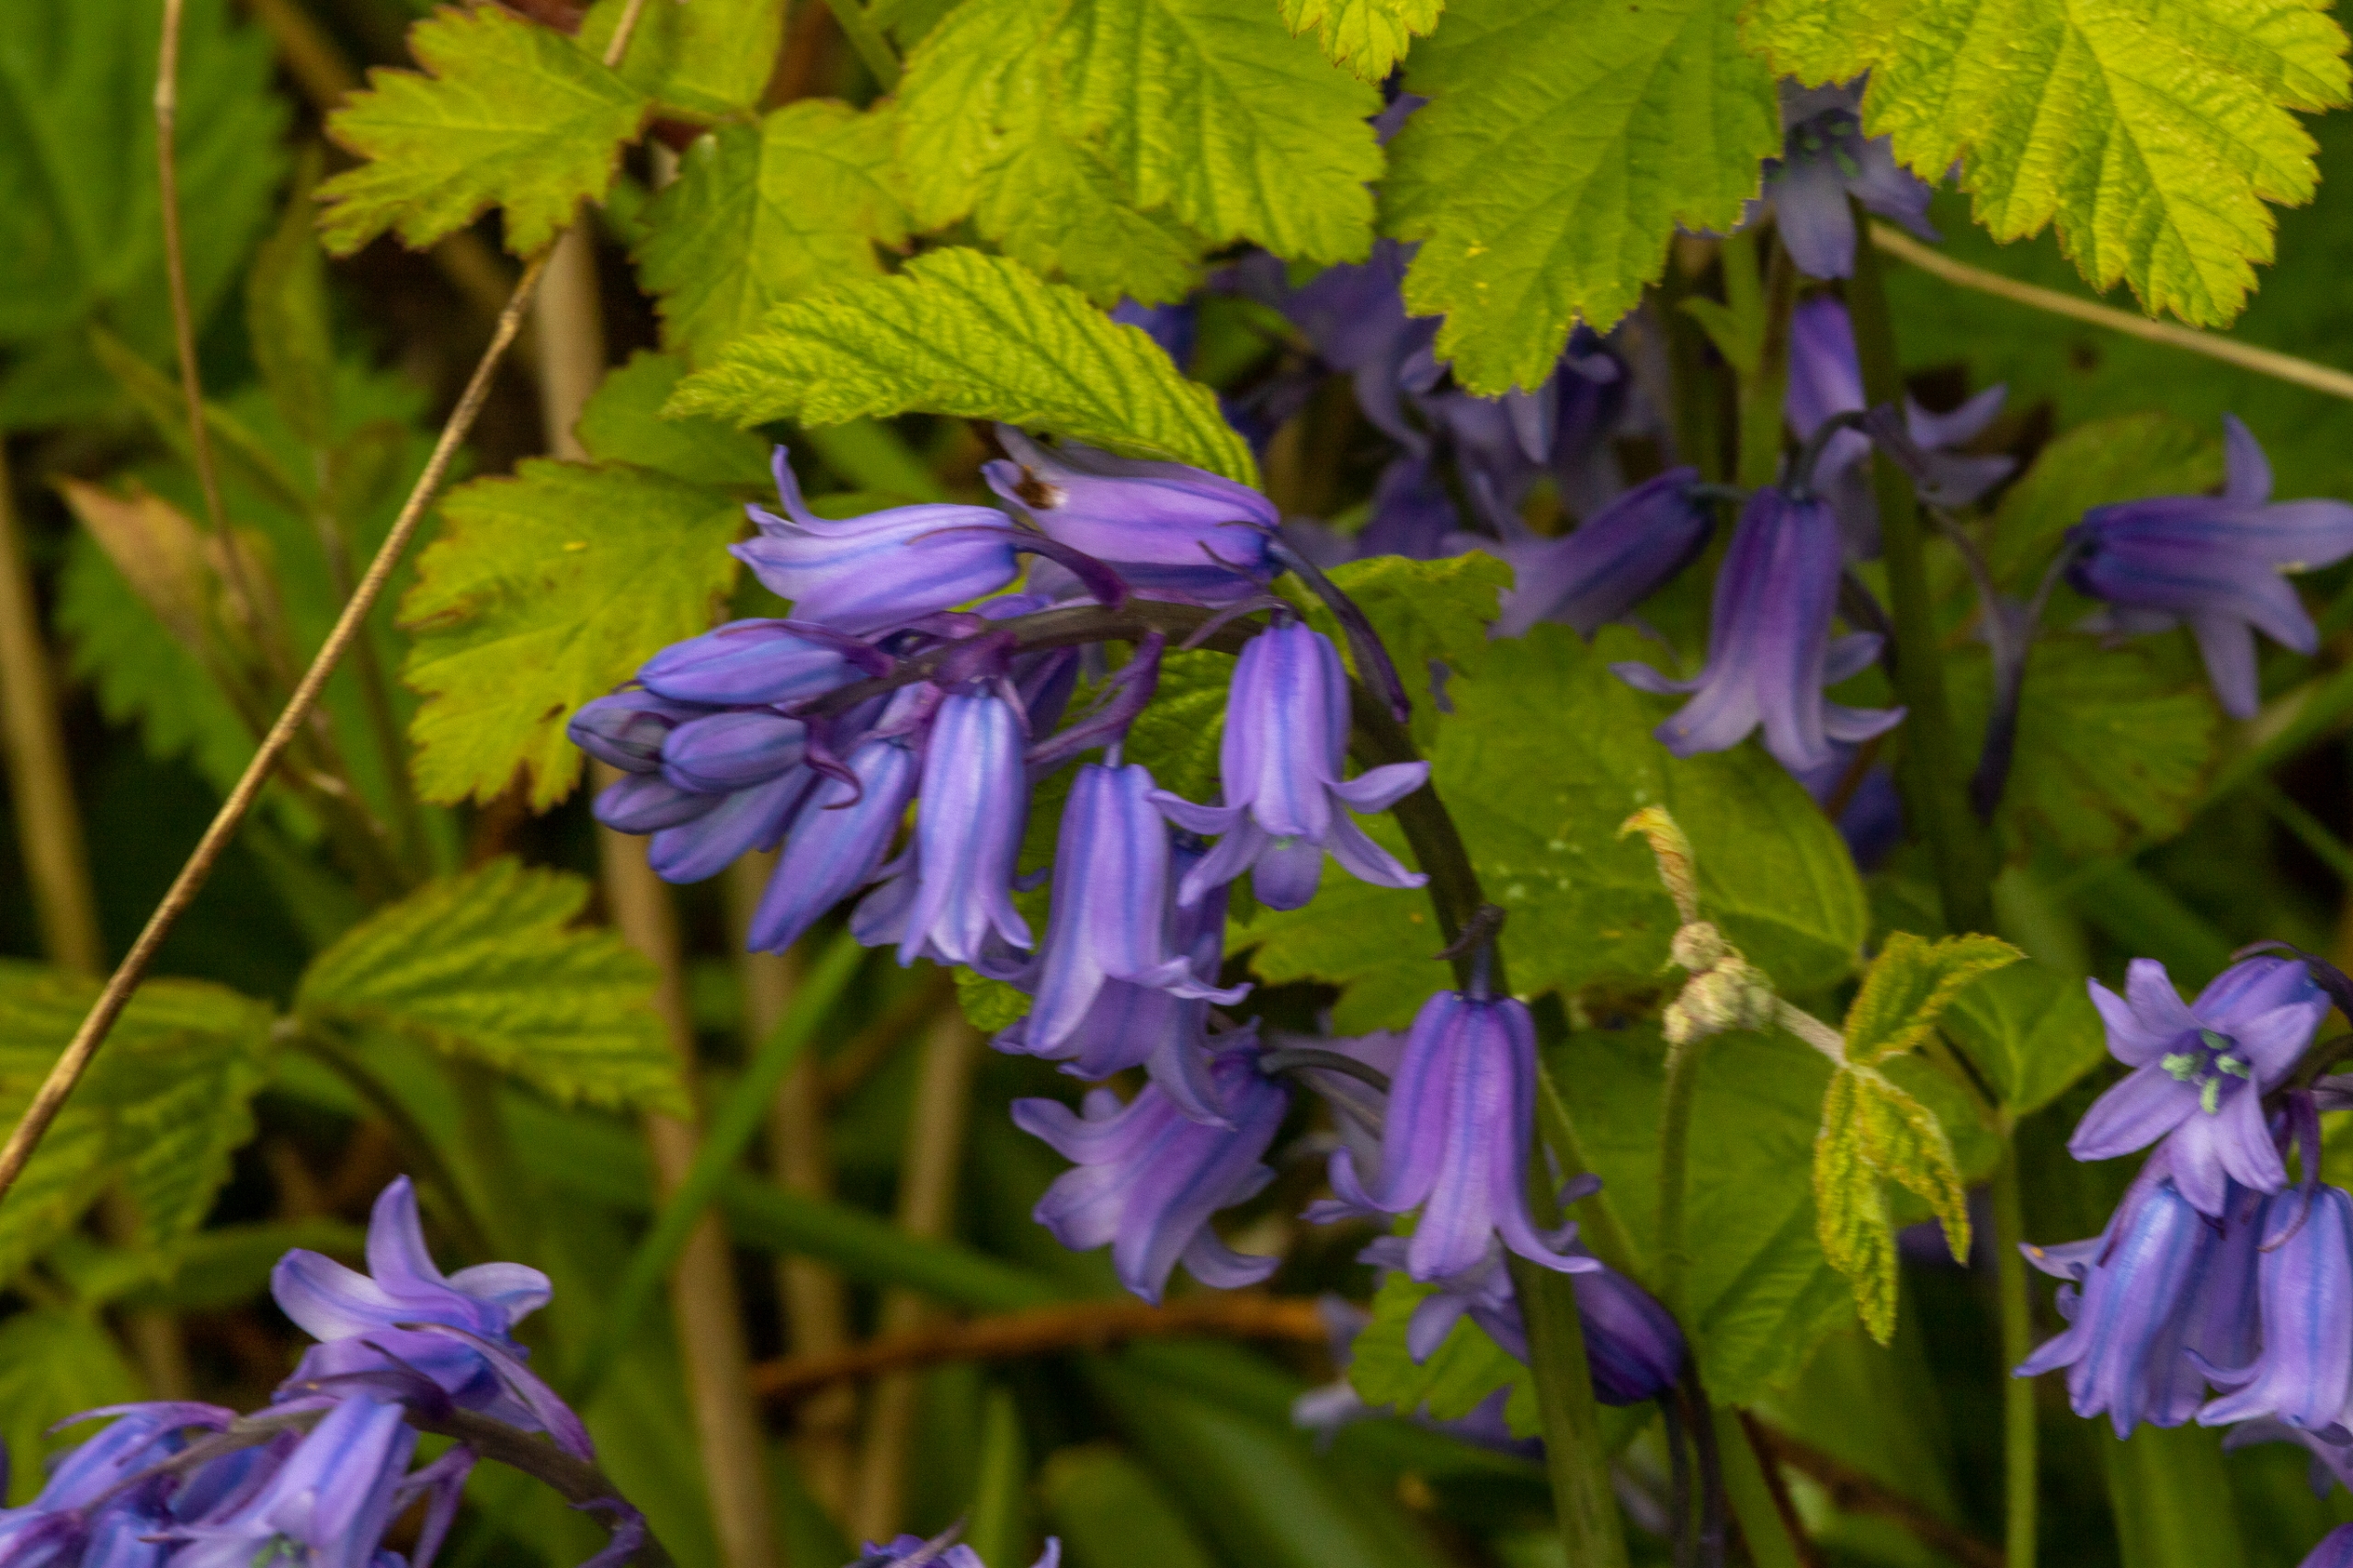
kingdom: Plantae
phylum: Tracheophyta
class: Liliopsida
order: Asparagales
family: Asparagaceae
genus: Hyacinthoides
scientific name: Hyacinthoides massartiana
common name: Hybrid-klokkeskilla
